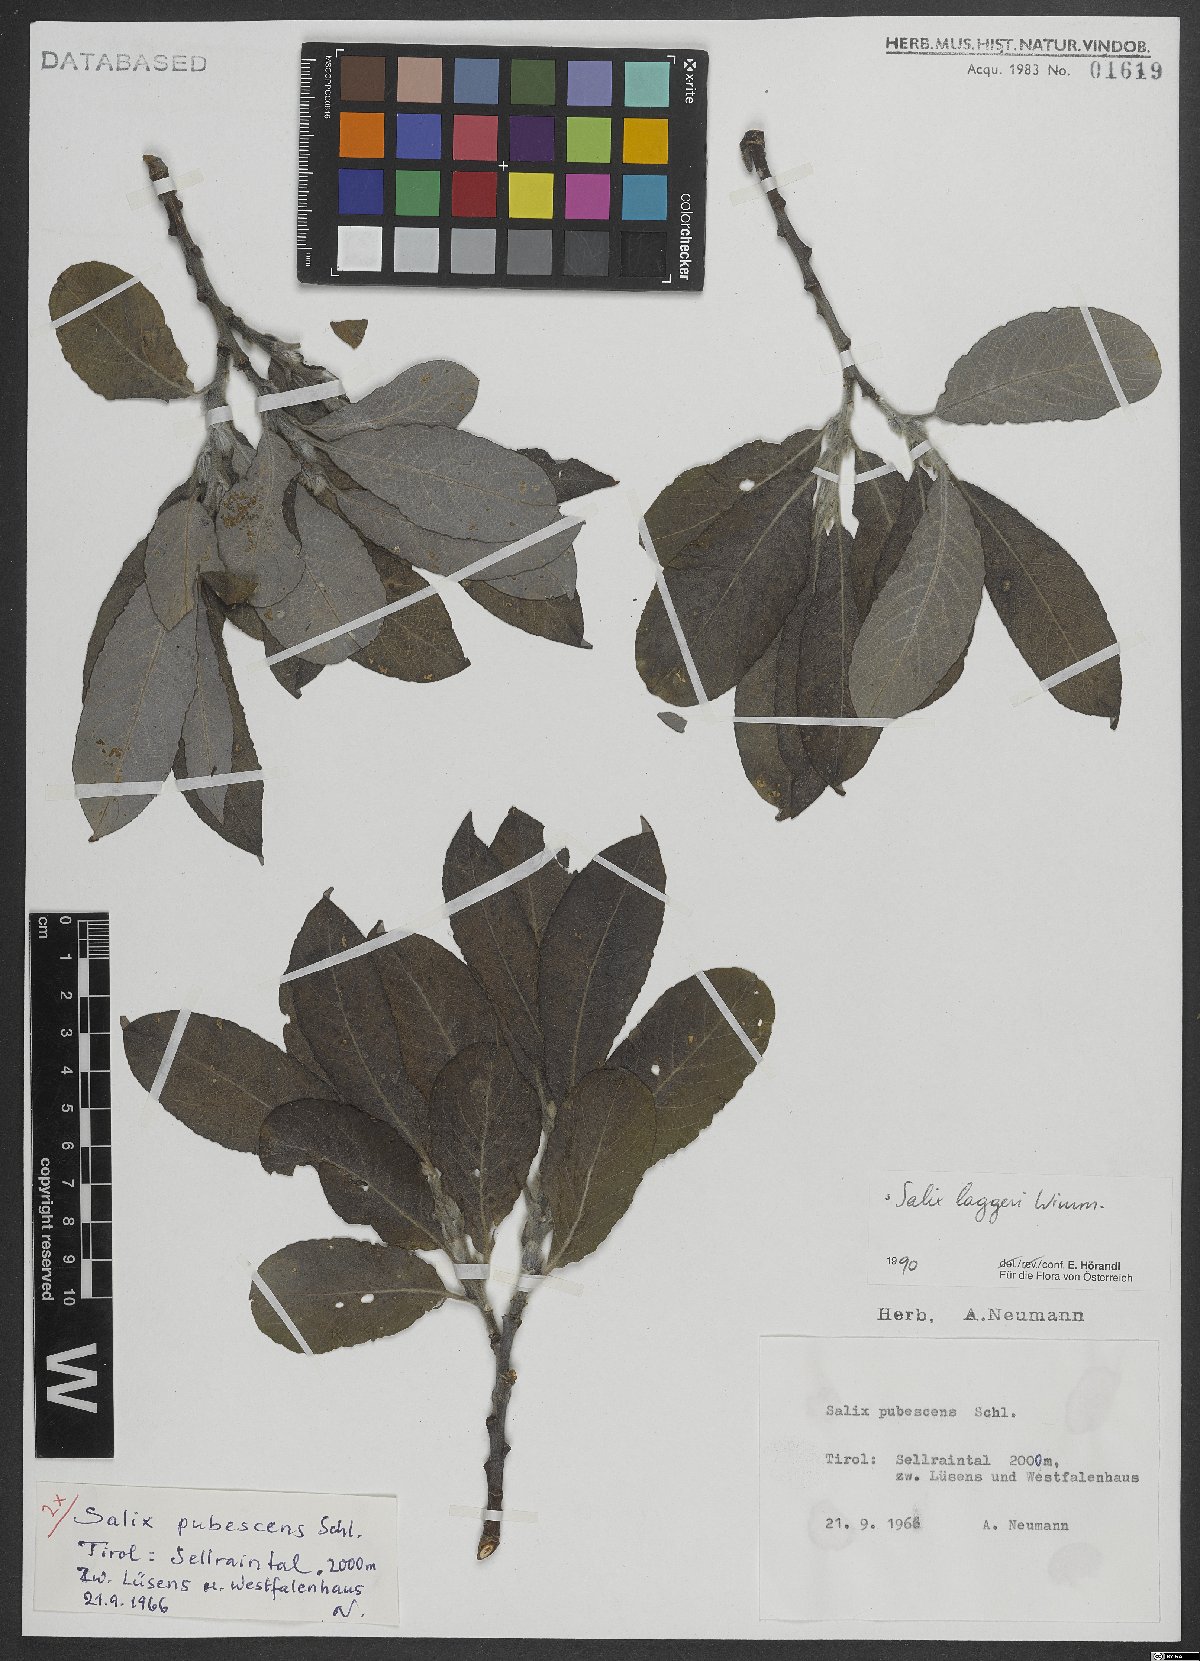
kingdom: Plantae
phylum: Tracheophyta
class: Magnoliopsida
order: Malpighiales
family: Salicaceae
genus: Salix
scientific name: Salix laggeri
